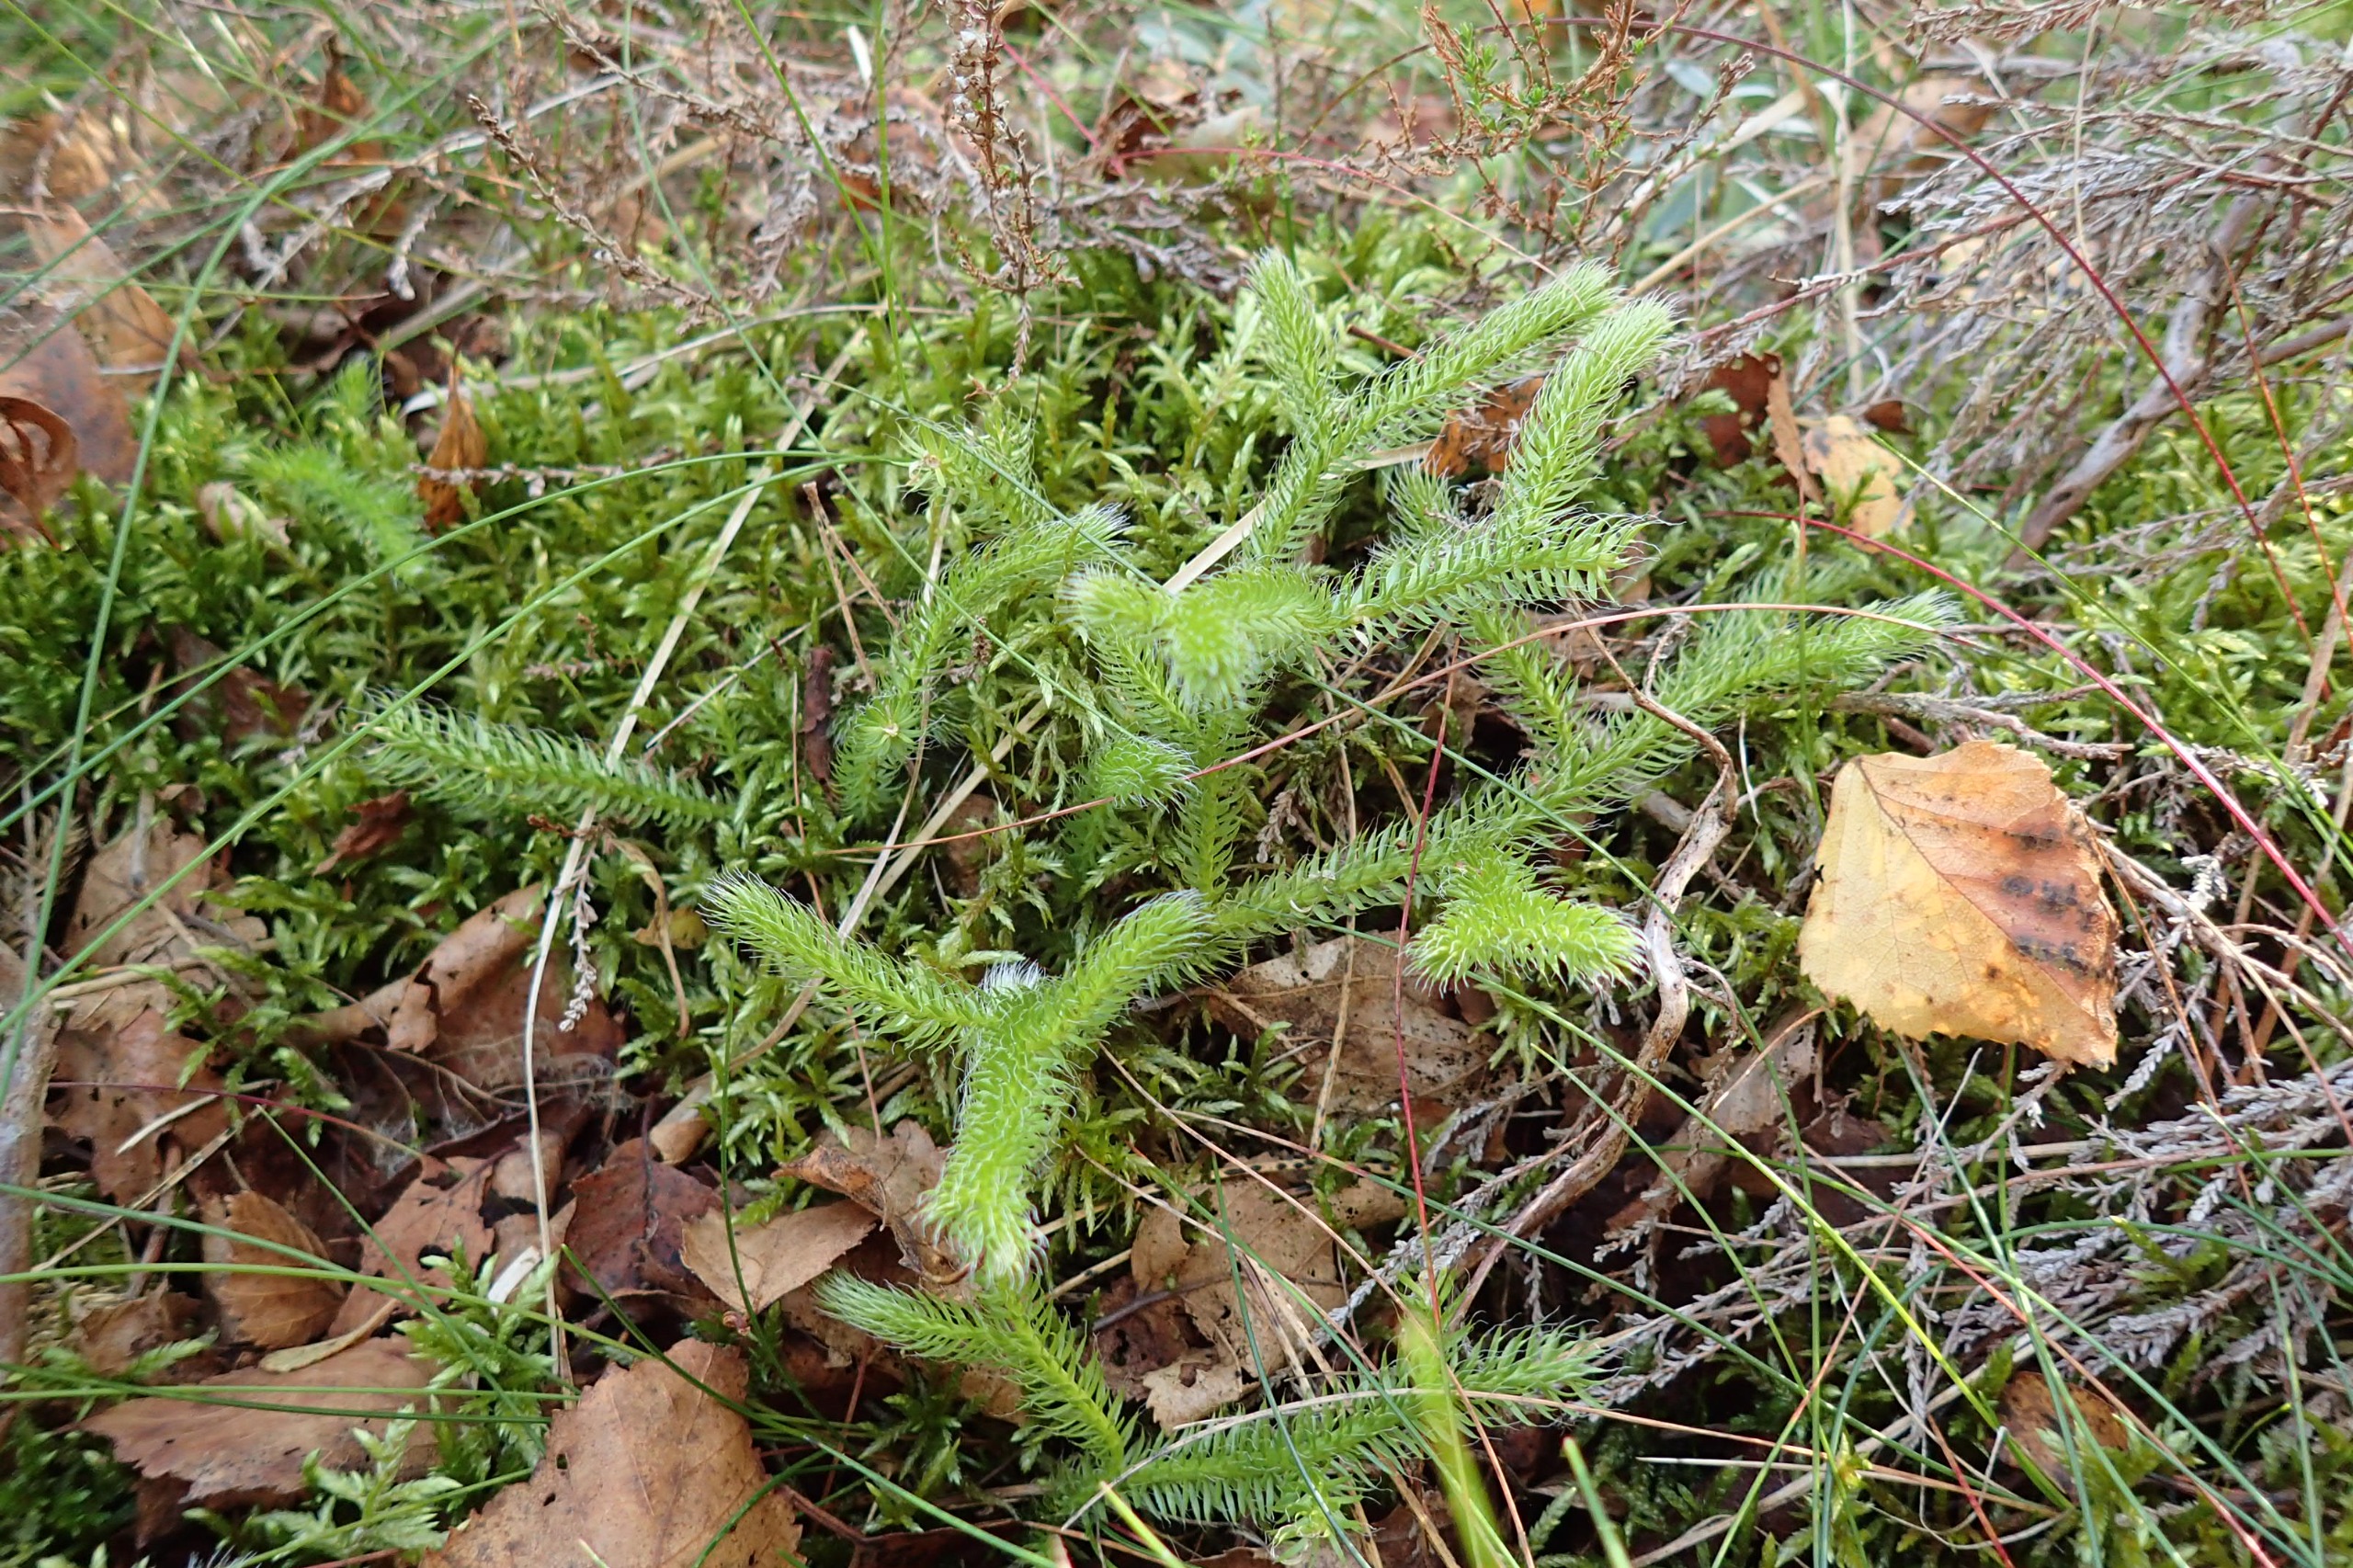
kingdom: Plantae
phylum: Tracheophyta
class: Lycopodiopsida
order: Lycopodiales
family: Lycopodiaceae
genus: Lycopodium
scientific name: Lycopodium clavatum
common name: Almindelig ulvefod
